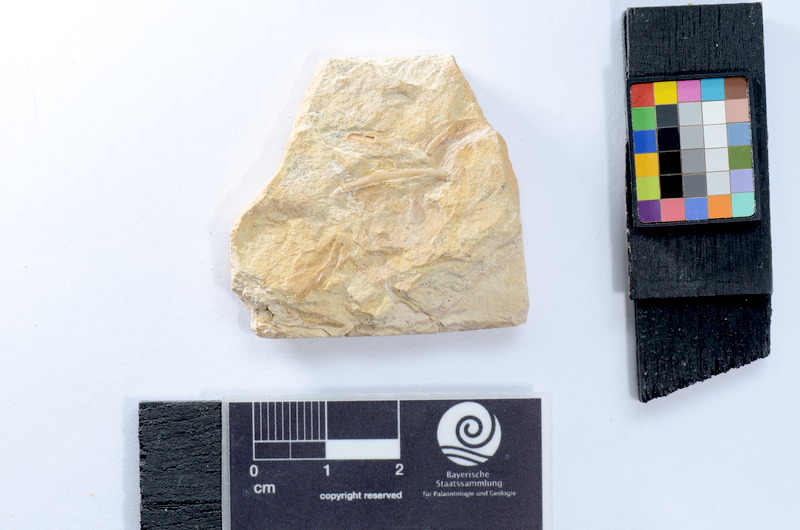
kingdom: Animalia
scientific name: Animalia
